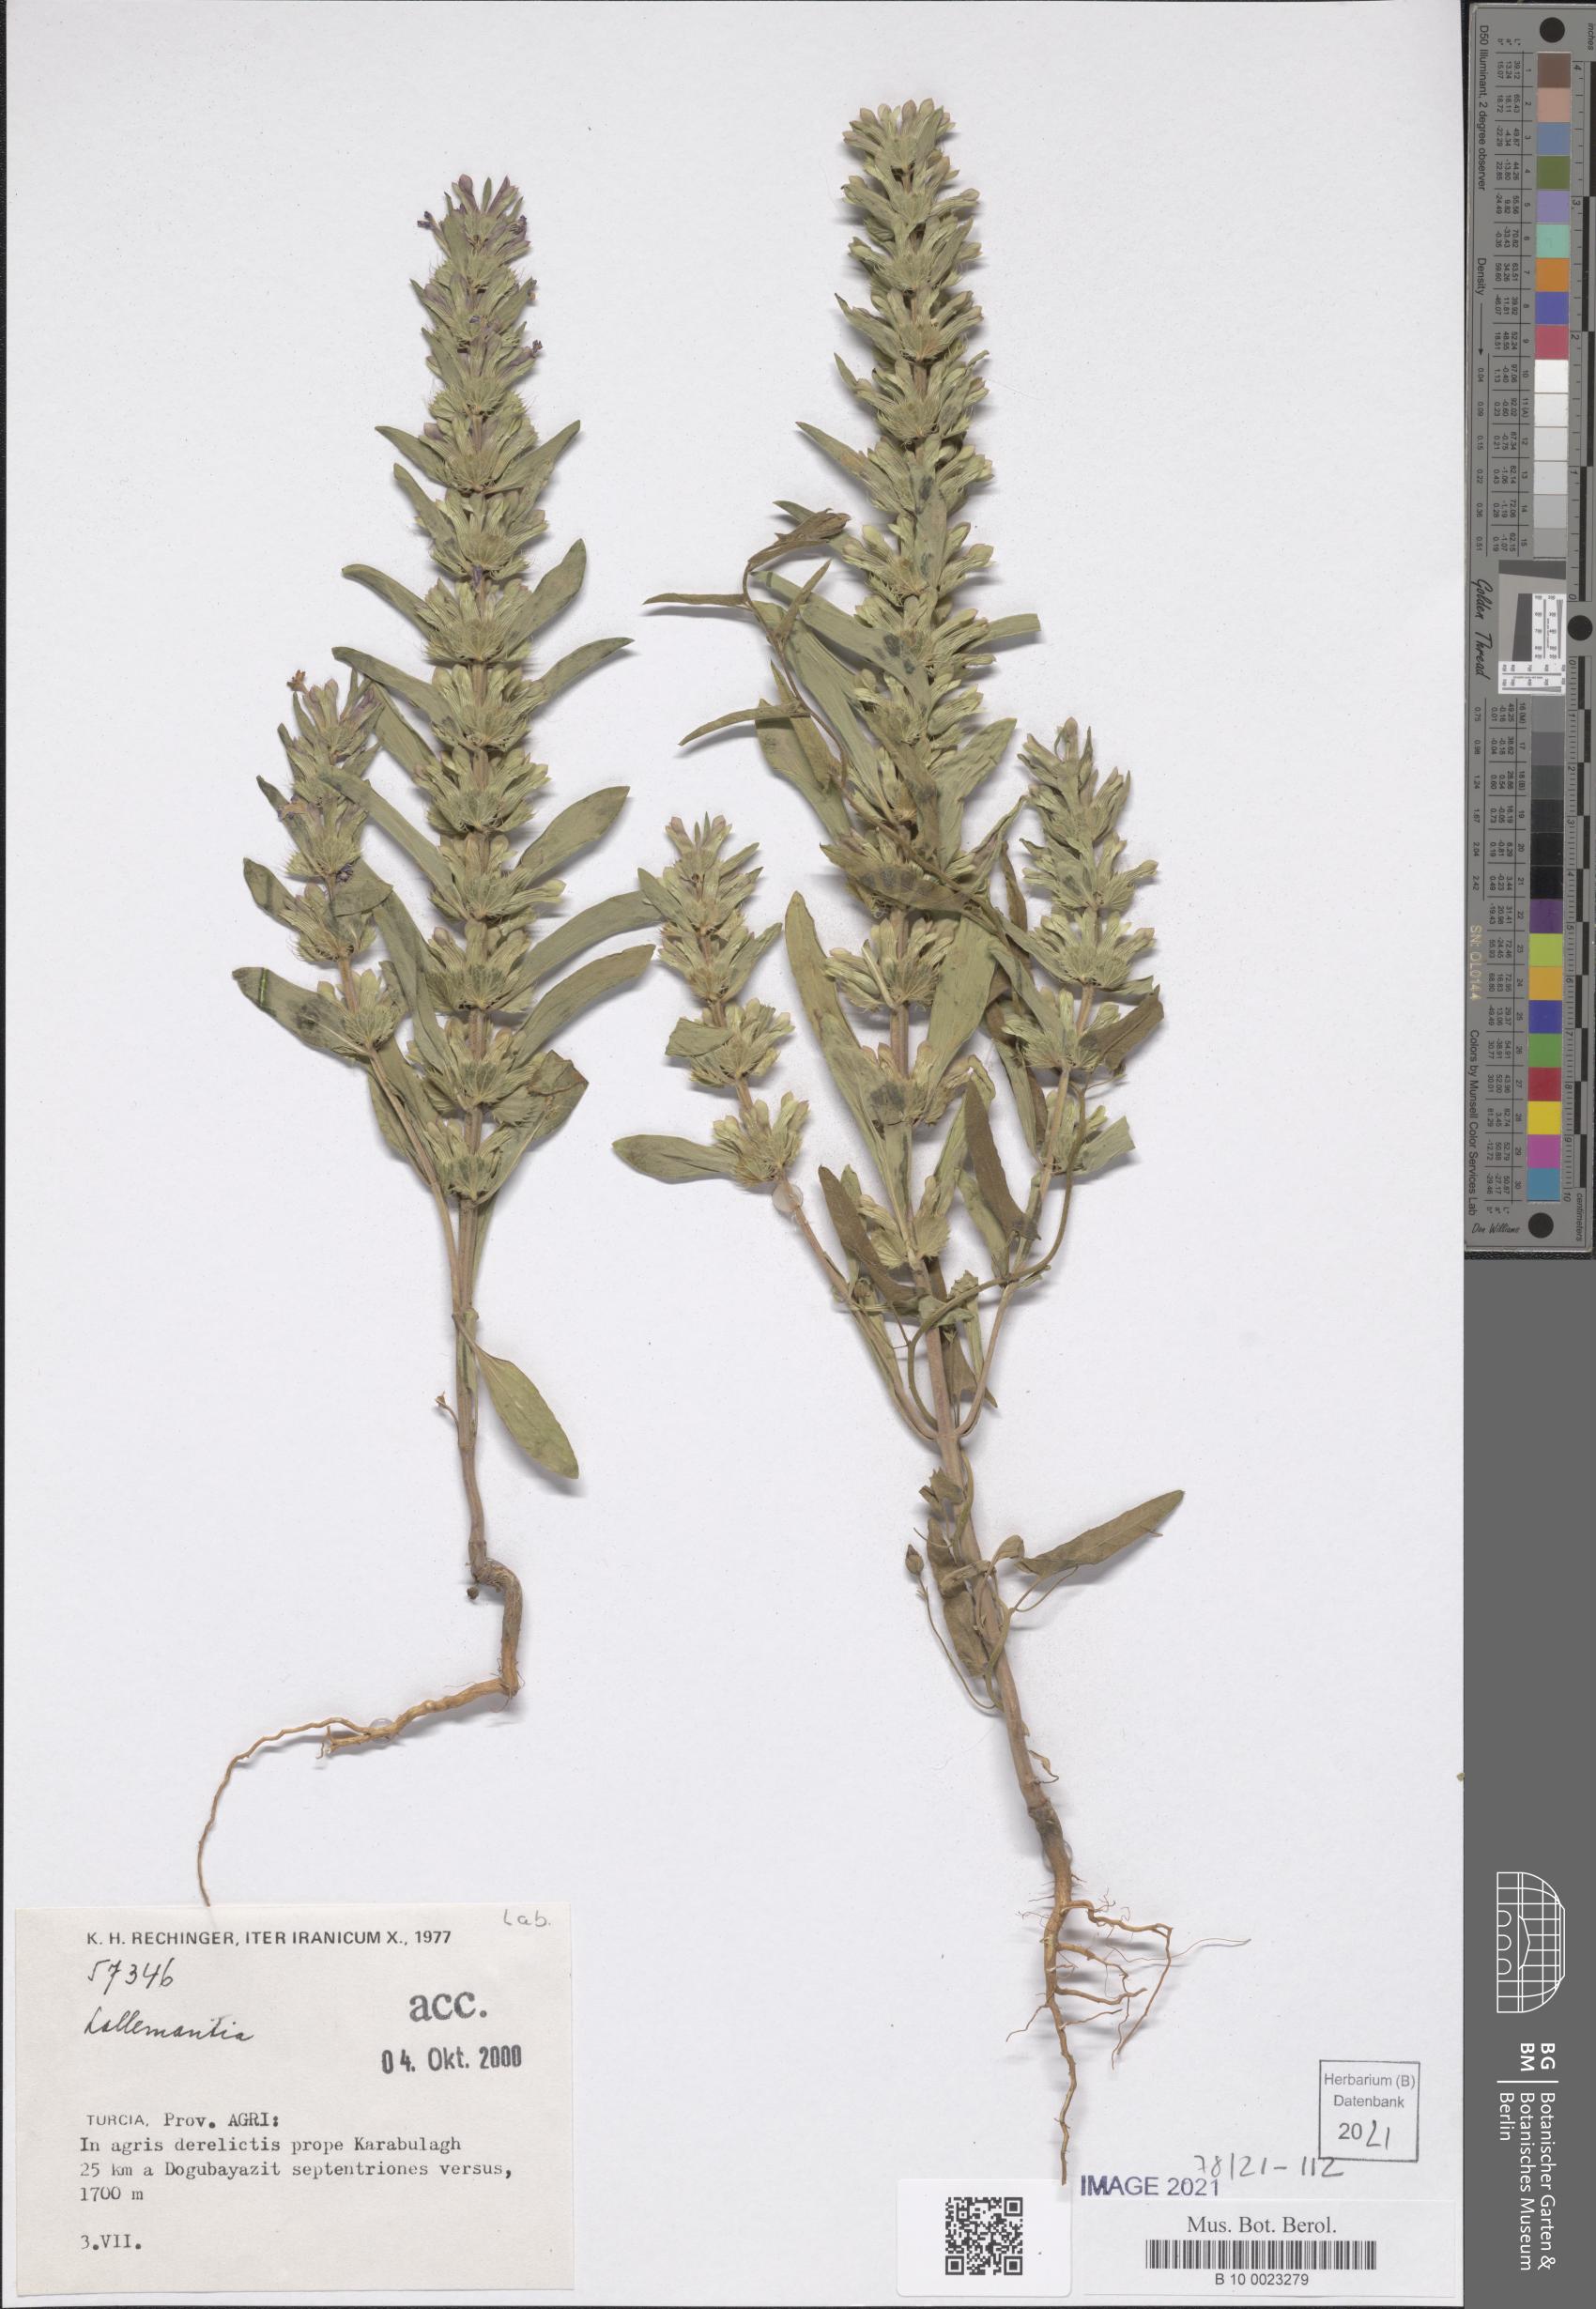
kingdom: Plantae
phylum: Tracheophyta
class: Magnoliopsida
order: Lamiales
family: Lamiaceae
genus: Lallemantia
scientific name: Lallemantia
